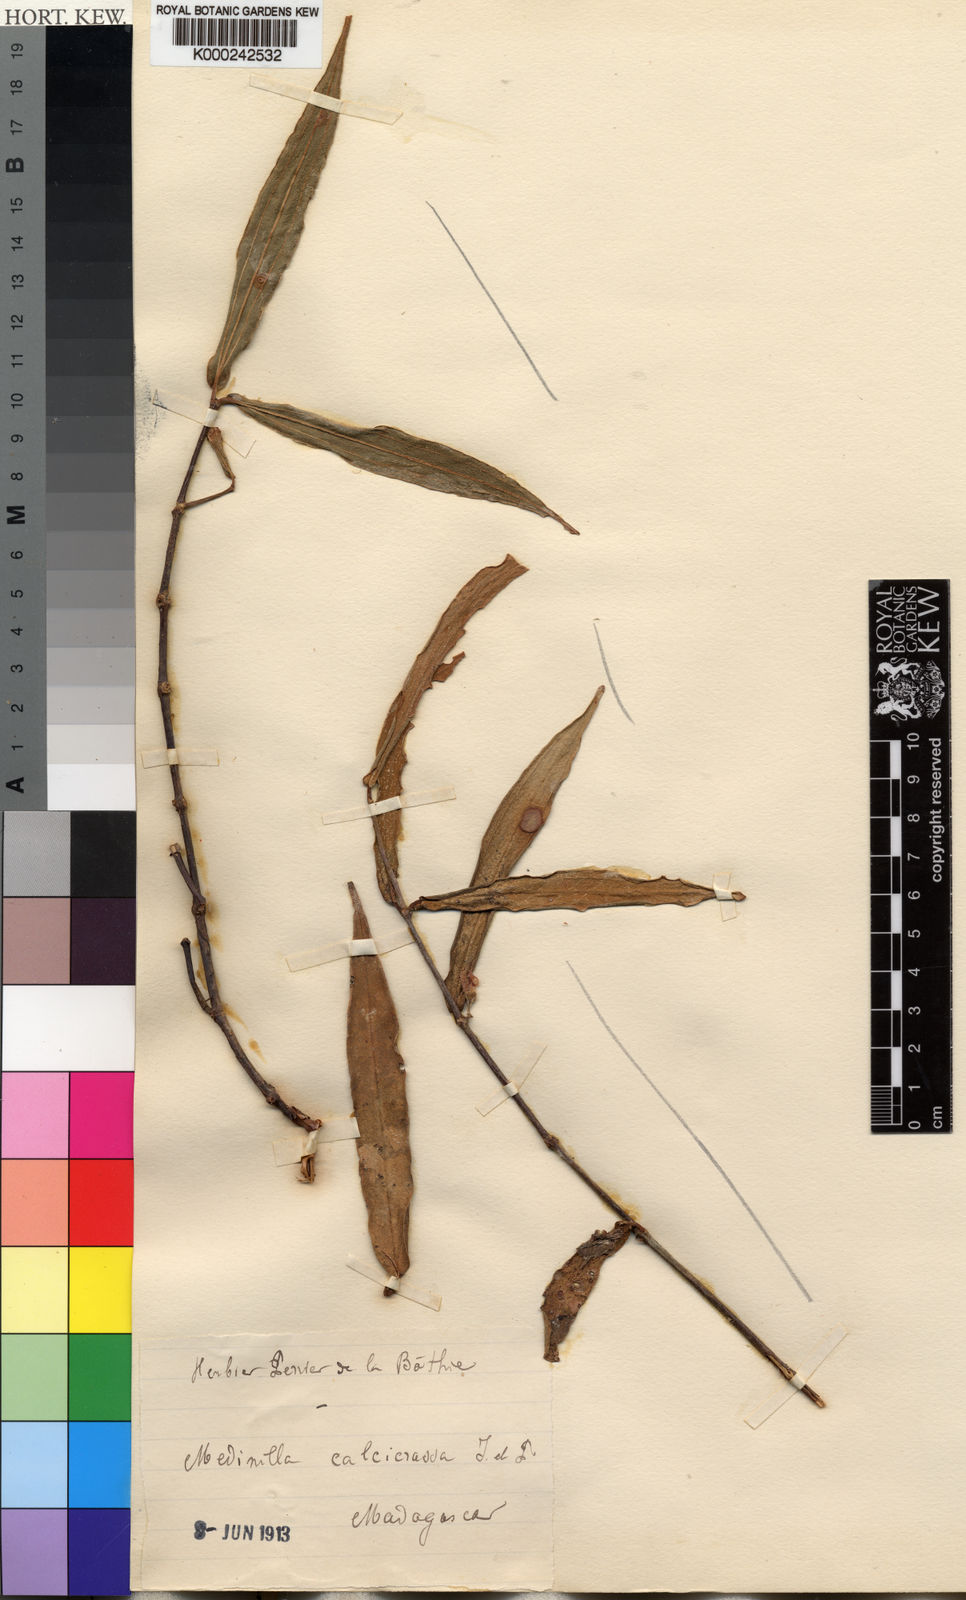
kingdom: Plantae
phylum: Tracheophyta
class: Magnoliopsida
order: Myrtales
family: Melastomataceae
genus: Medinilla
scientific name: Medinilla calcicrassa
